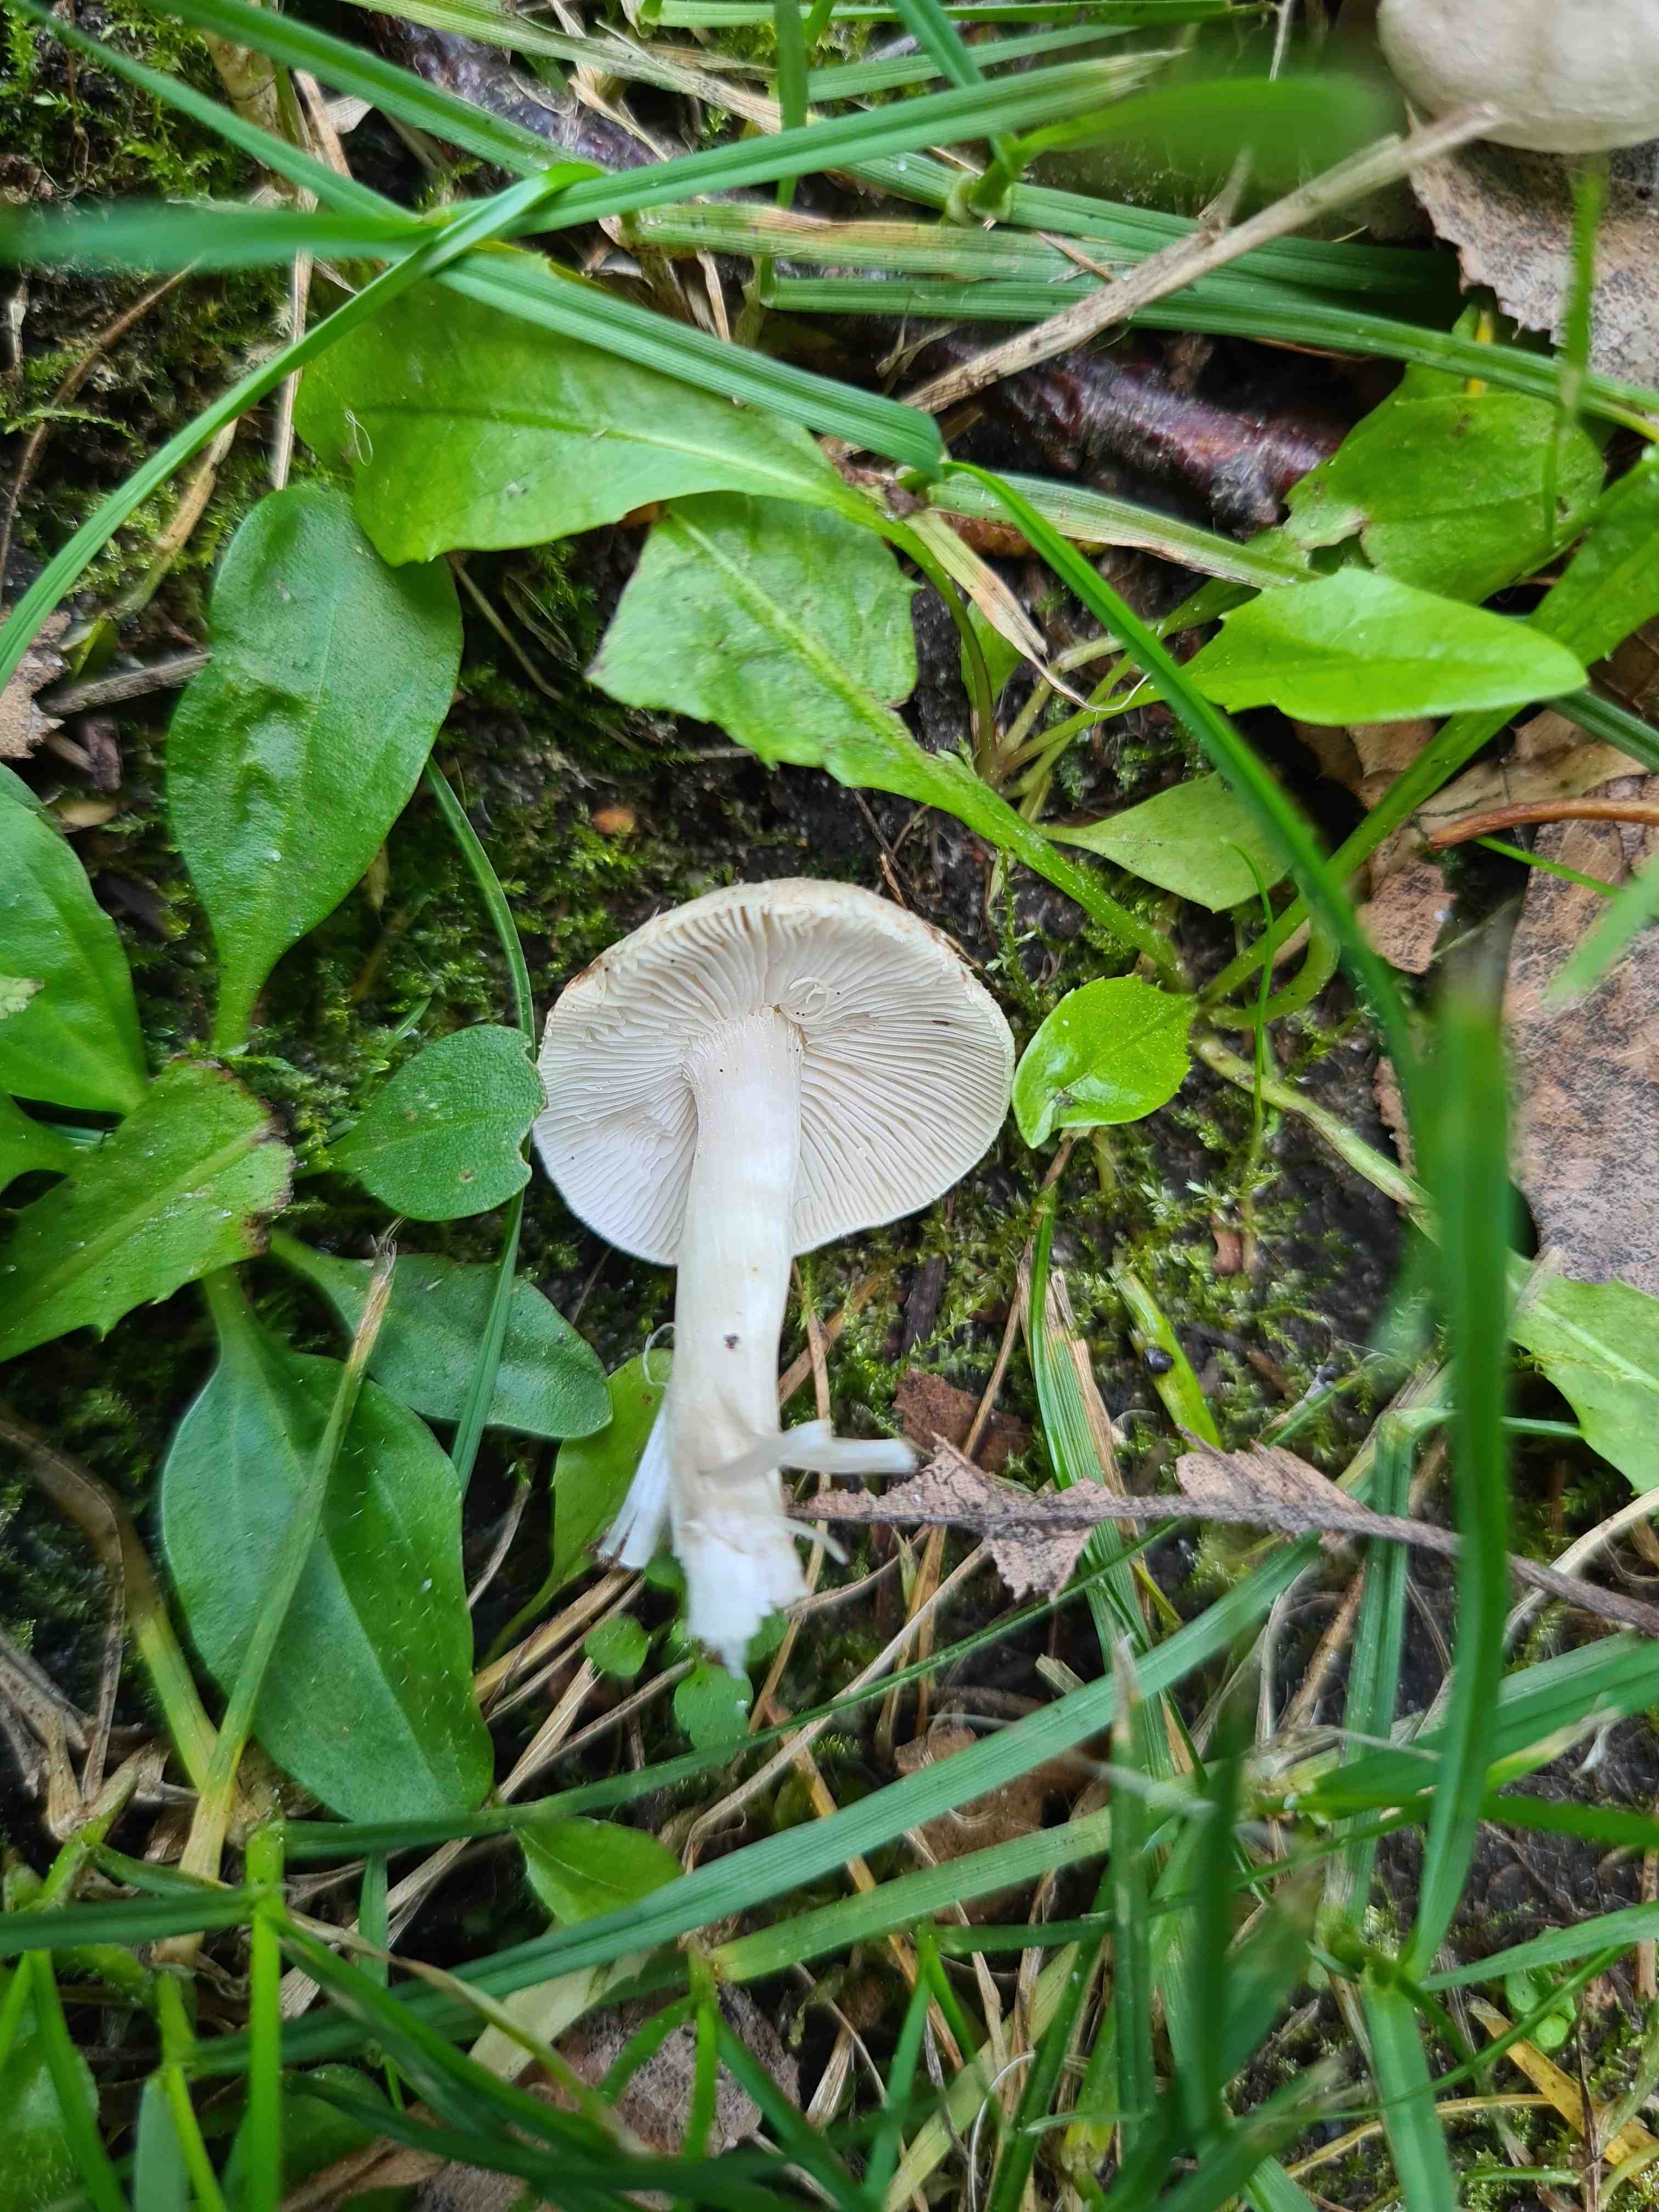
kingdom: Fungi
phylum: Basidiomycota
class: Agaricomycetes
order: Agaricales
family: Tricholomataceae
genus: Tricholoma
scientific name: Tricholoma
